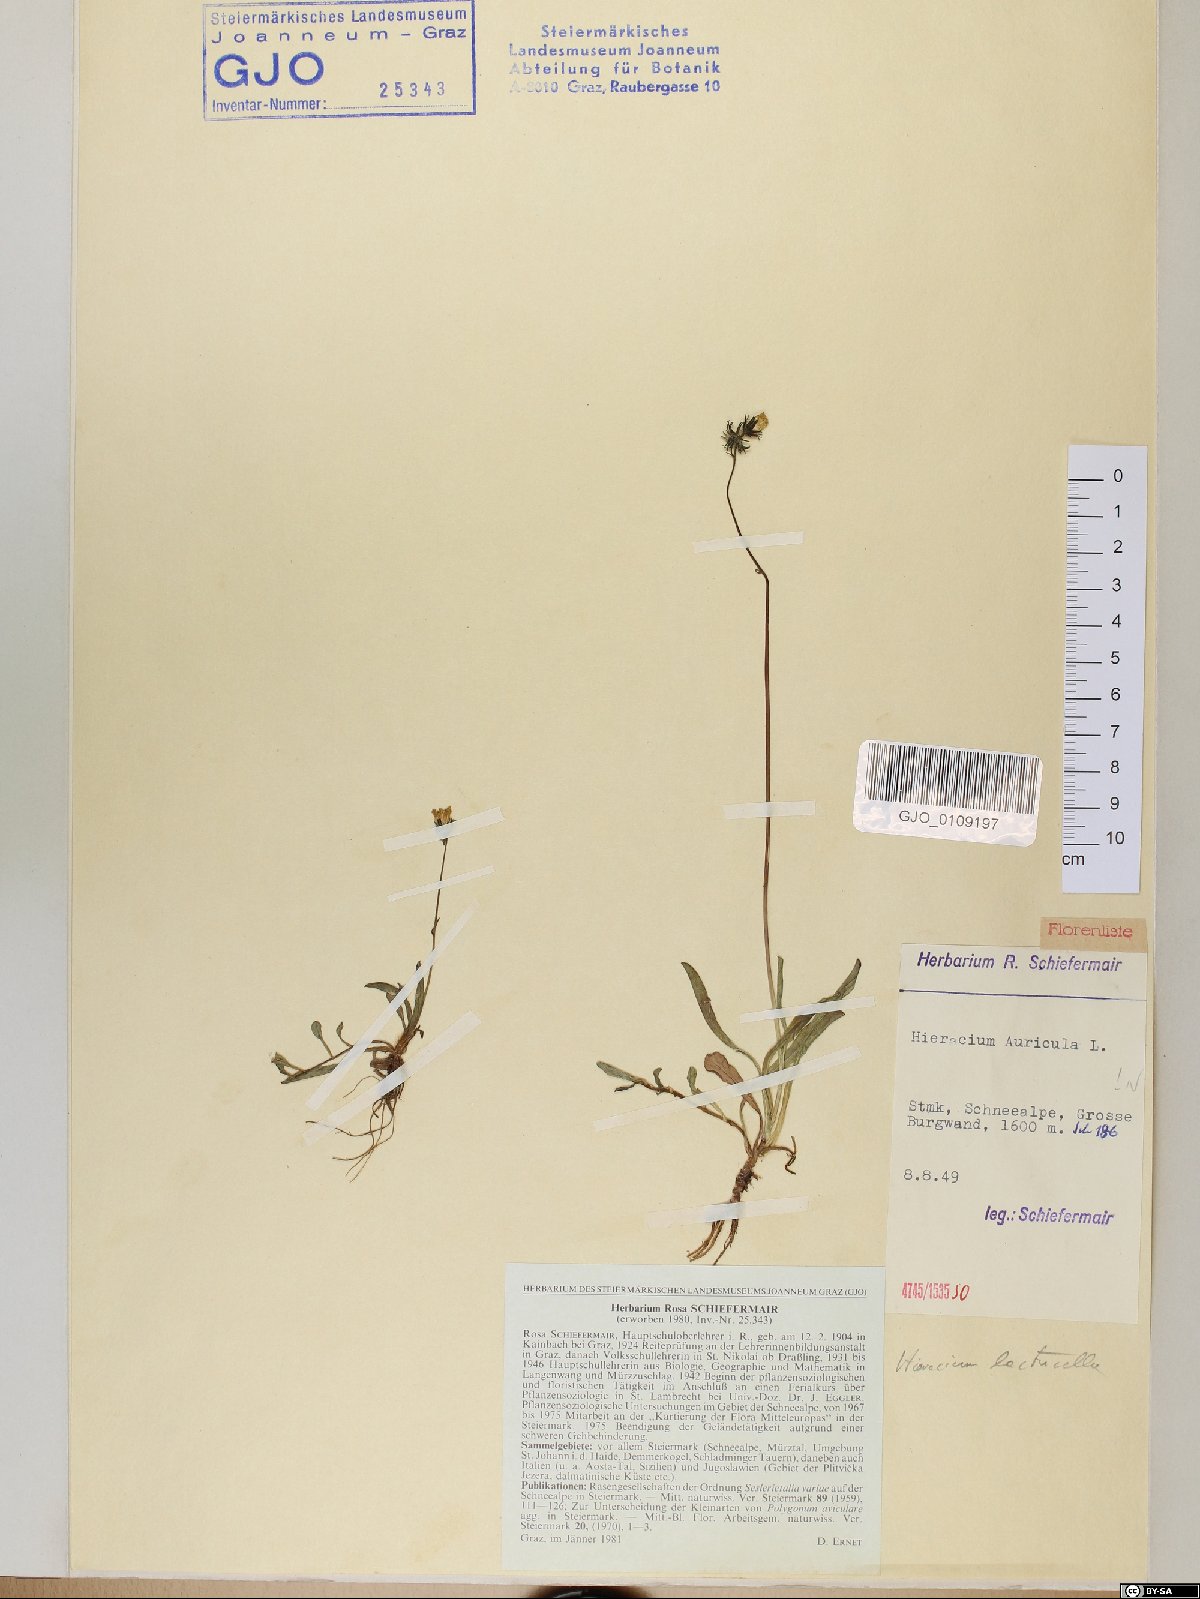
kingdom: Plantae
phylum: Tracheophyta
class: Magnoliopsida
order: Asterales
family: Asteraceae
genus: Pilosella
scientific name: Pilosella floribunda
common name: Glaucous hawkweed
